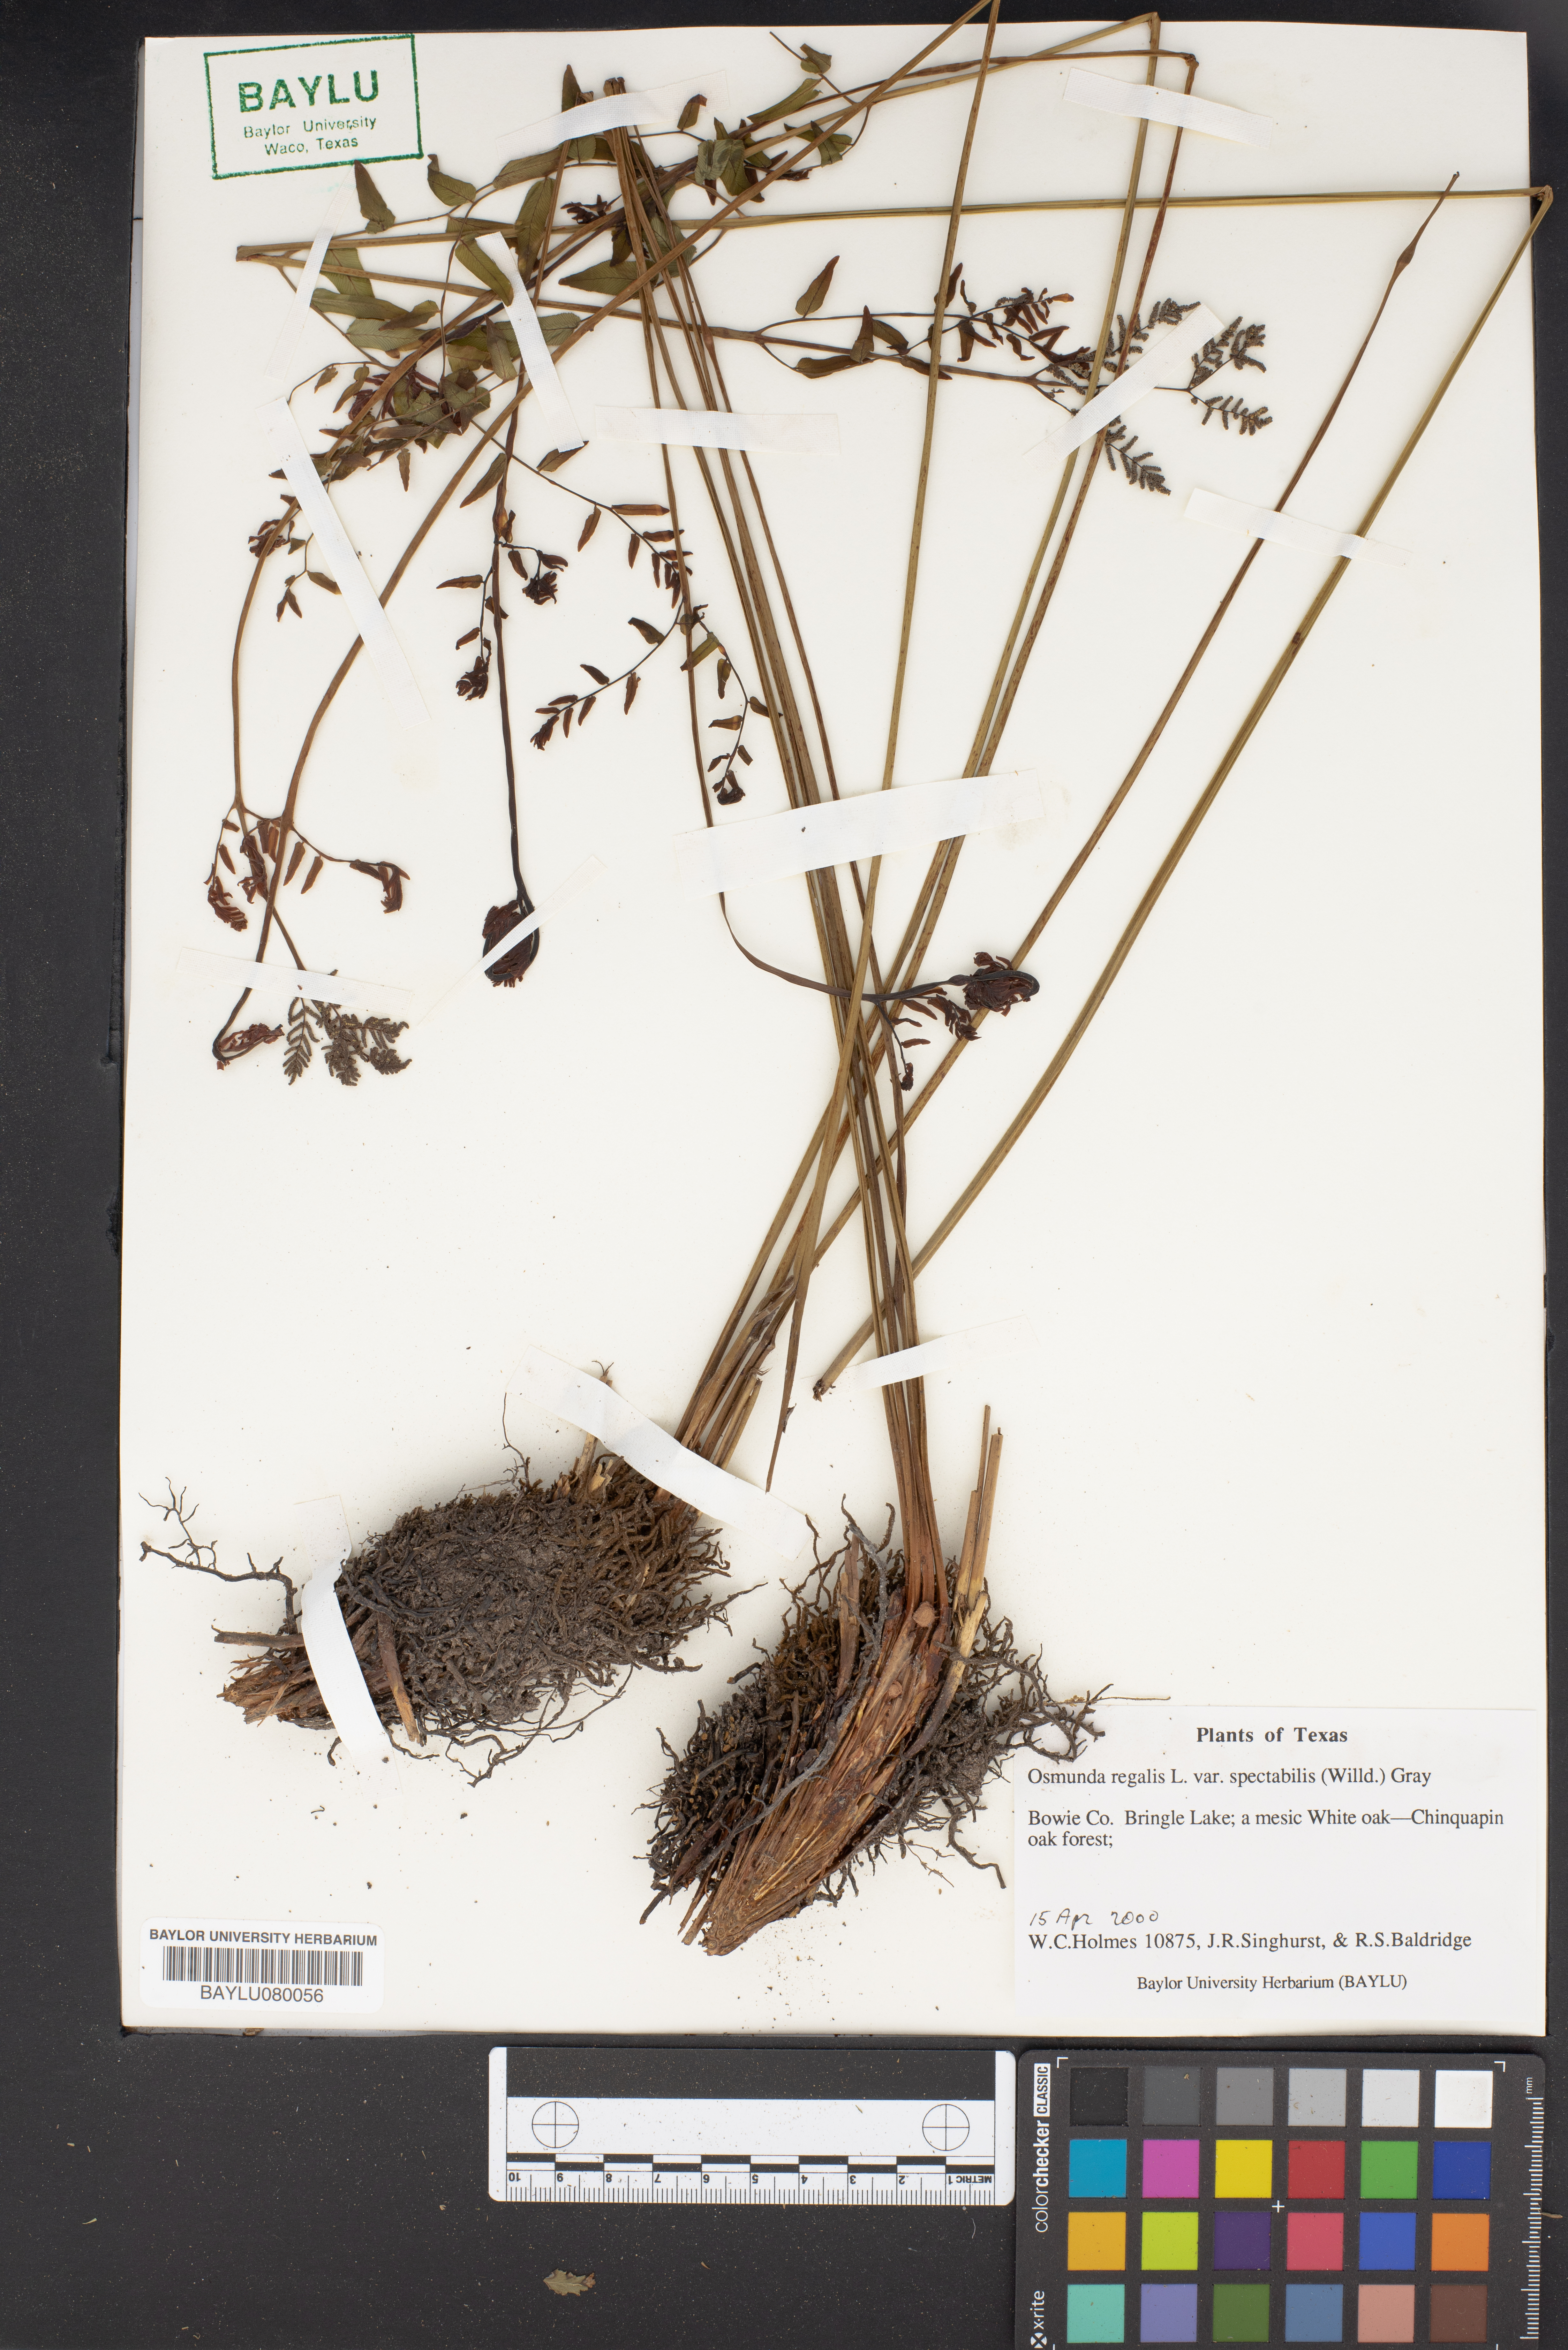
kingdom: Plantae
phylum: Tracheophyta
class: Polypodiopsida
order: Osmundales
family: Osmundaceae
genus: Osmunda
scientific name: Osmunda spectabilis
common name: American royal fern
